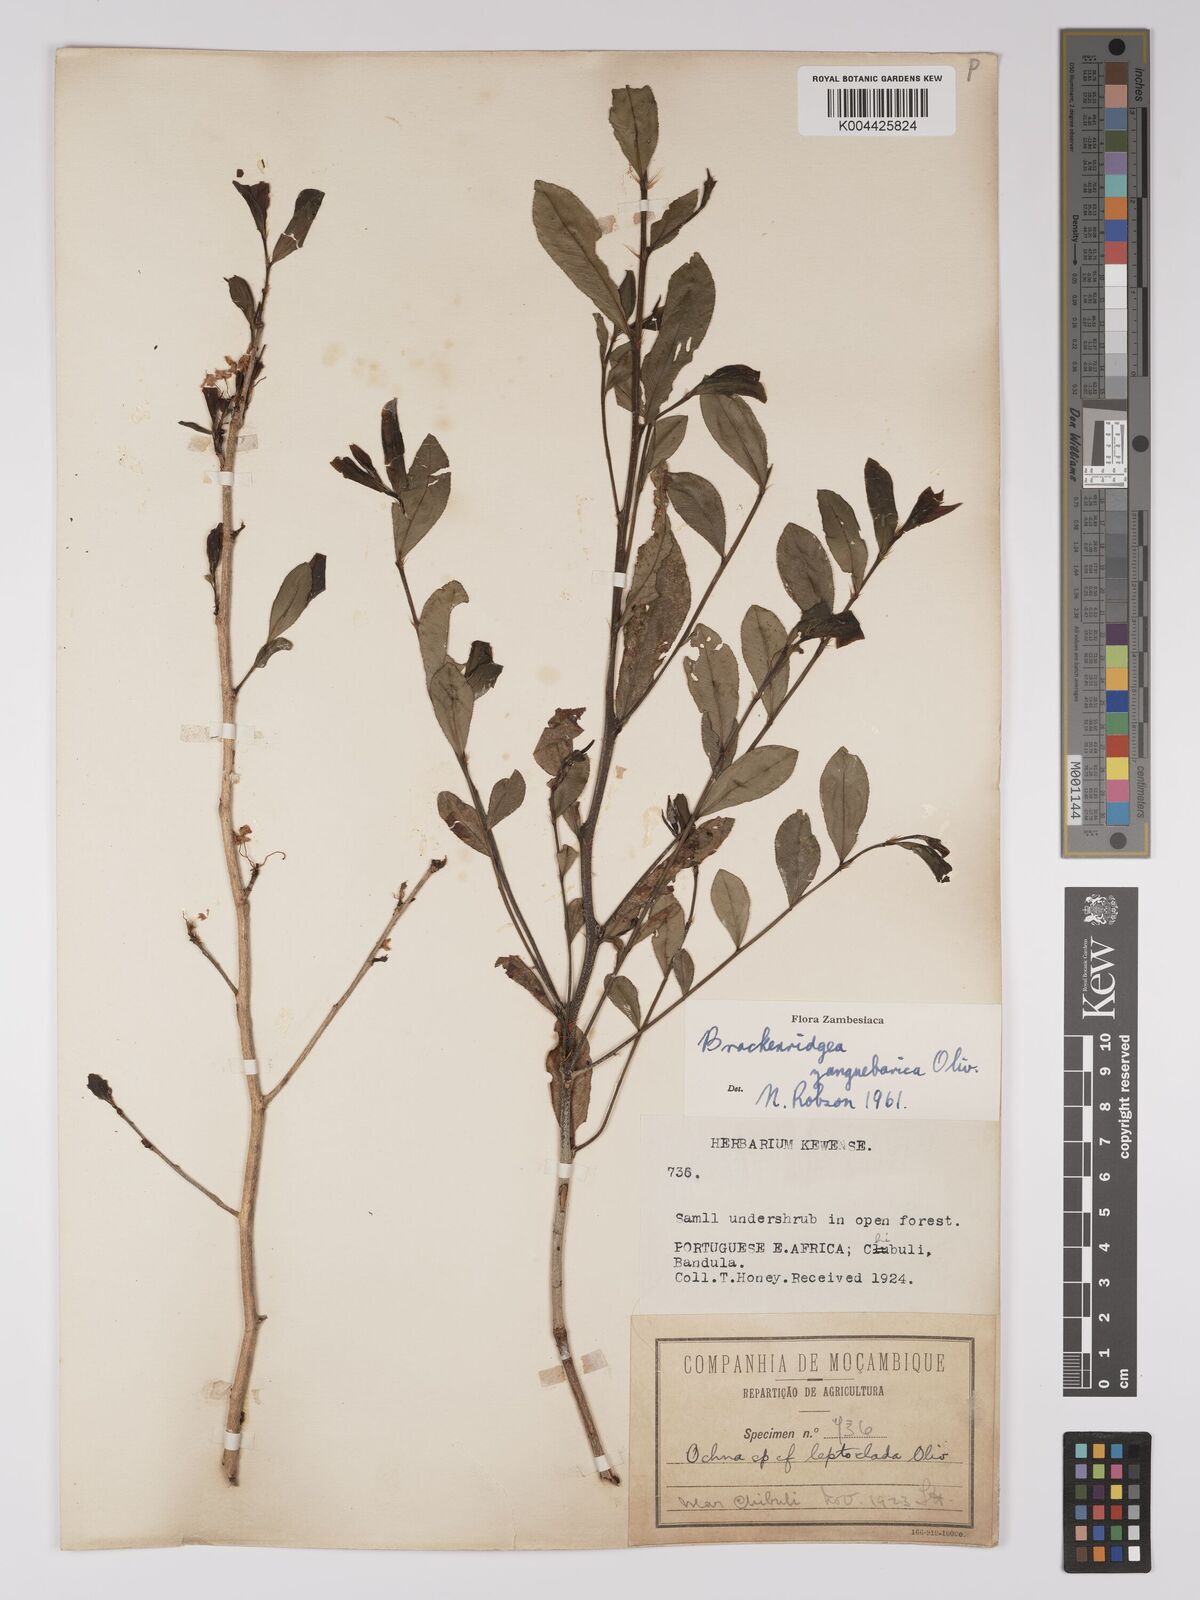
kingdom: Plantae
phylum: Tracheophyta
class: Magnoliopsida
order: Malpighiales
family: Ochnaceae
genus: Brackenridgea
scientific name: Brackenridgea zanguebarica
